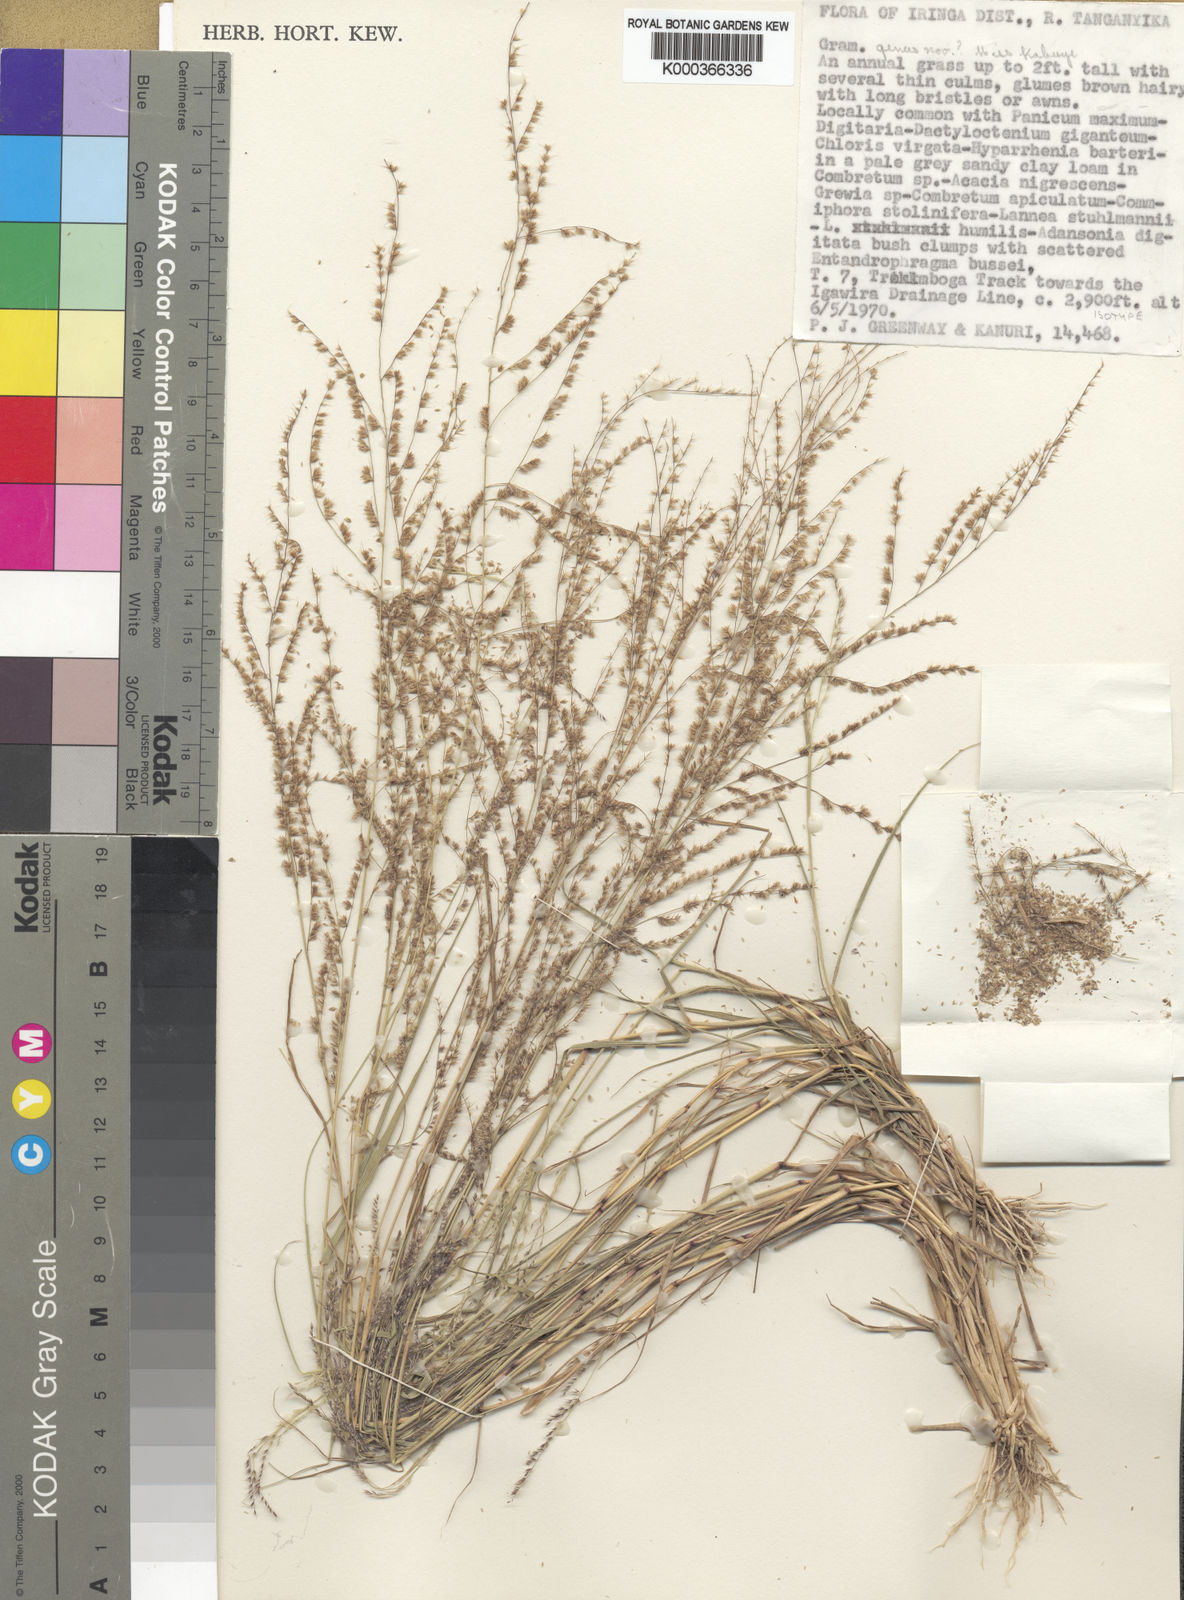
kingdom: Plantae
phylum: Tracheophyta
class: Liliopsida
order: Poales
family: Poaceae
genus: Eragrostis
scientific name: Eragrostis aristiglumis
